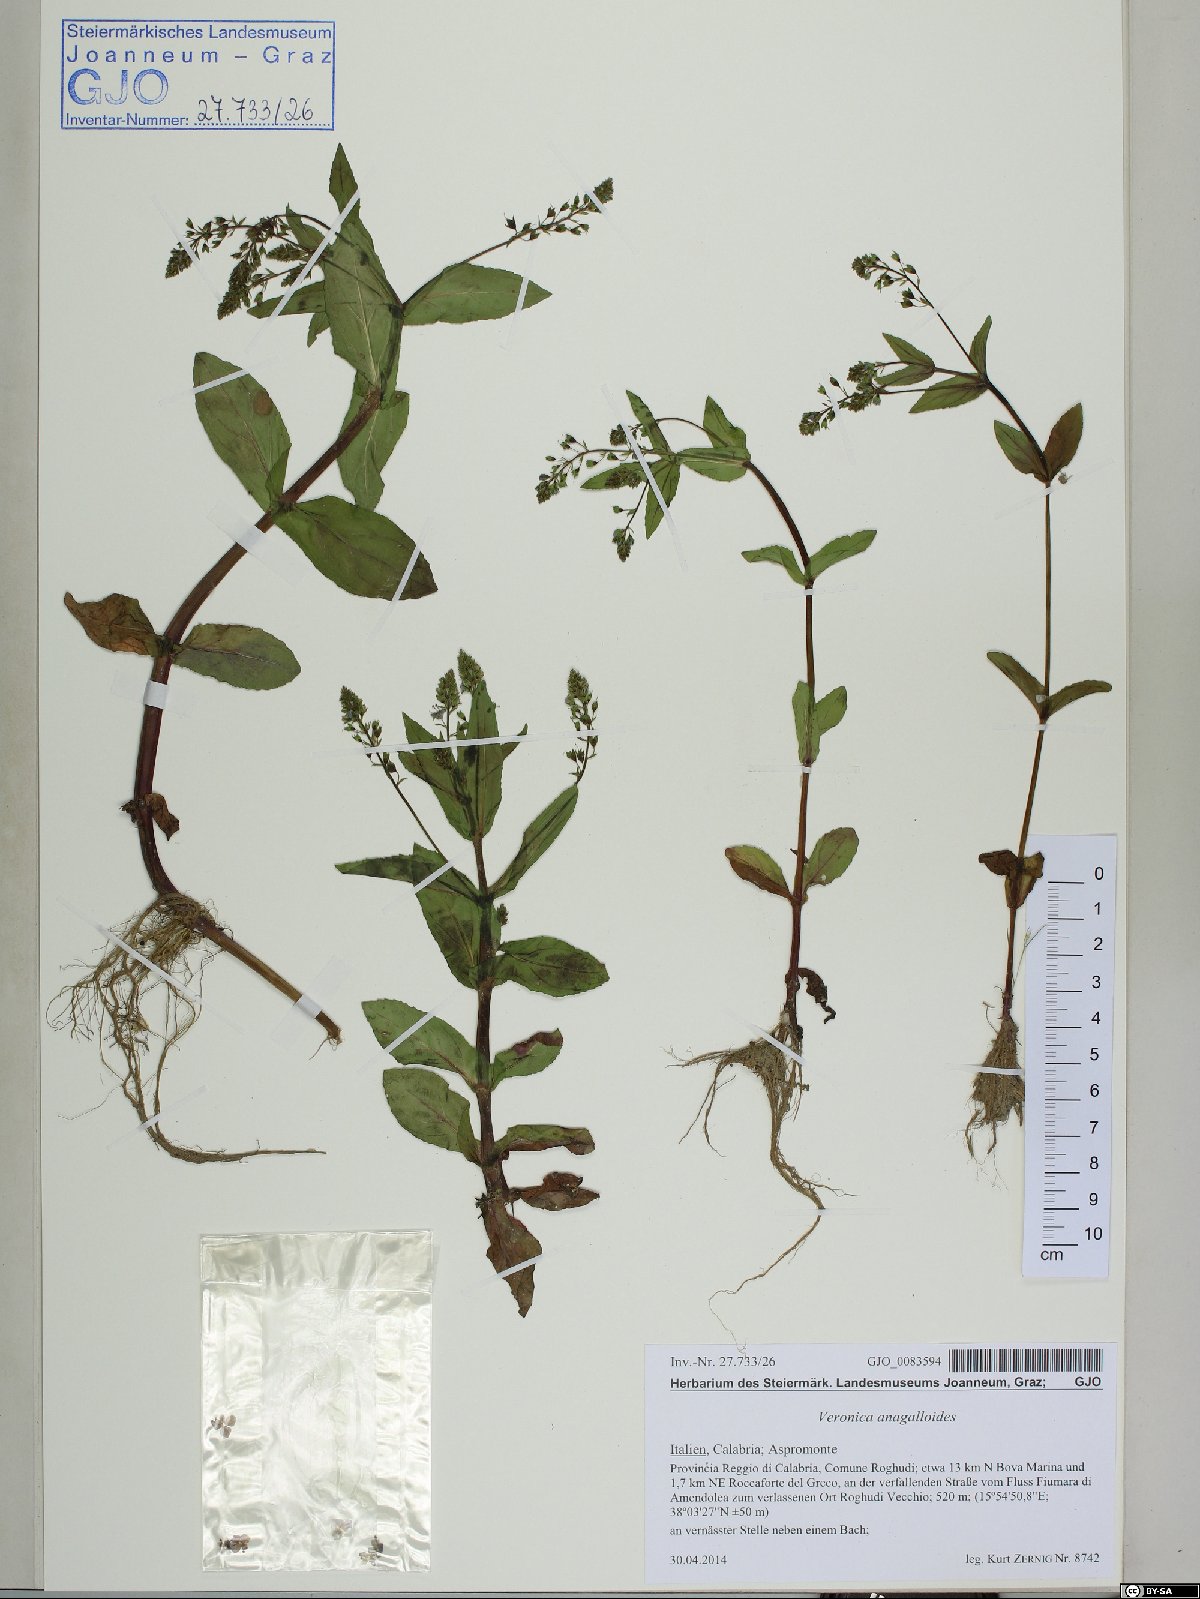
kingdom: Plantae
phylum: Tracheophyta
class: Magnoliopsida
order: Lamiales
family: Plantaginaceae
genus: Veronica
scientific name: Veronica anagalloides
